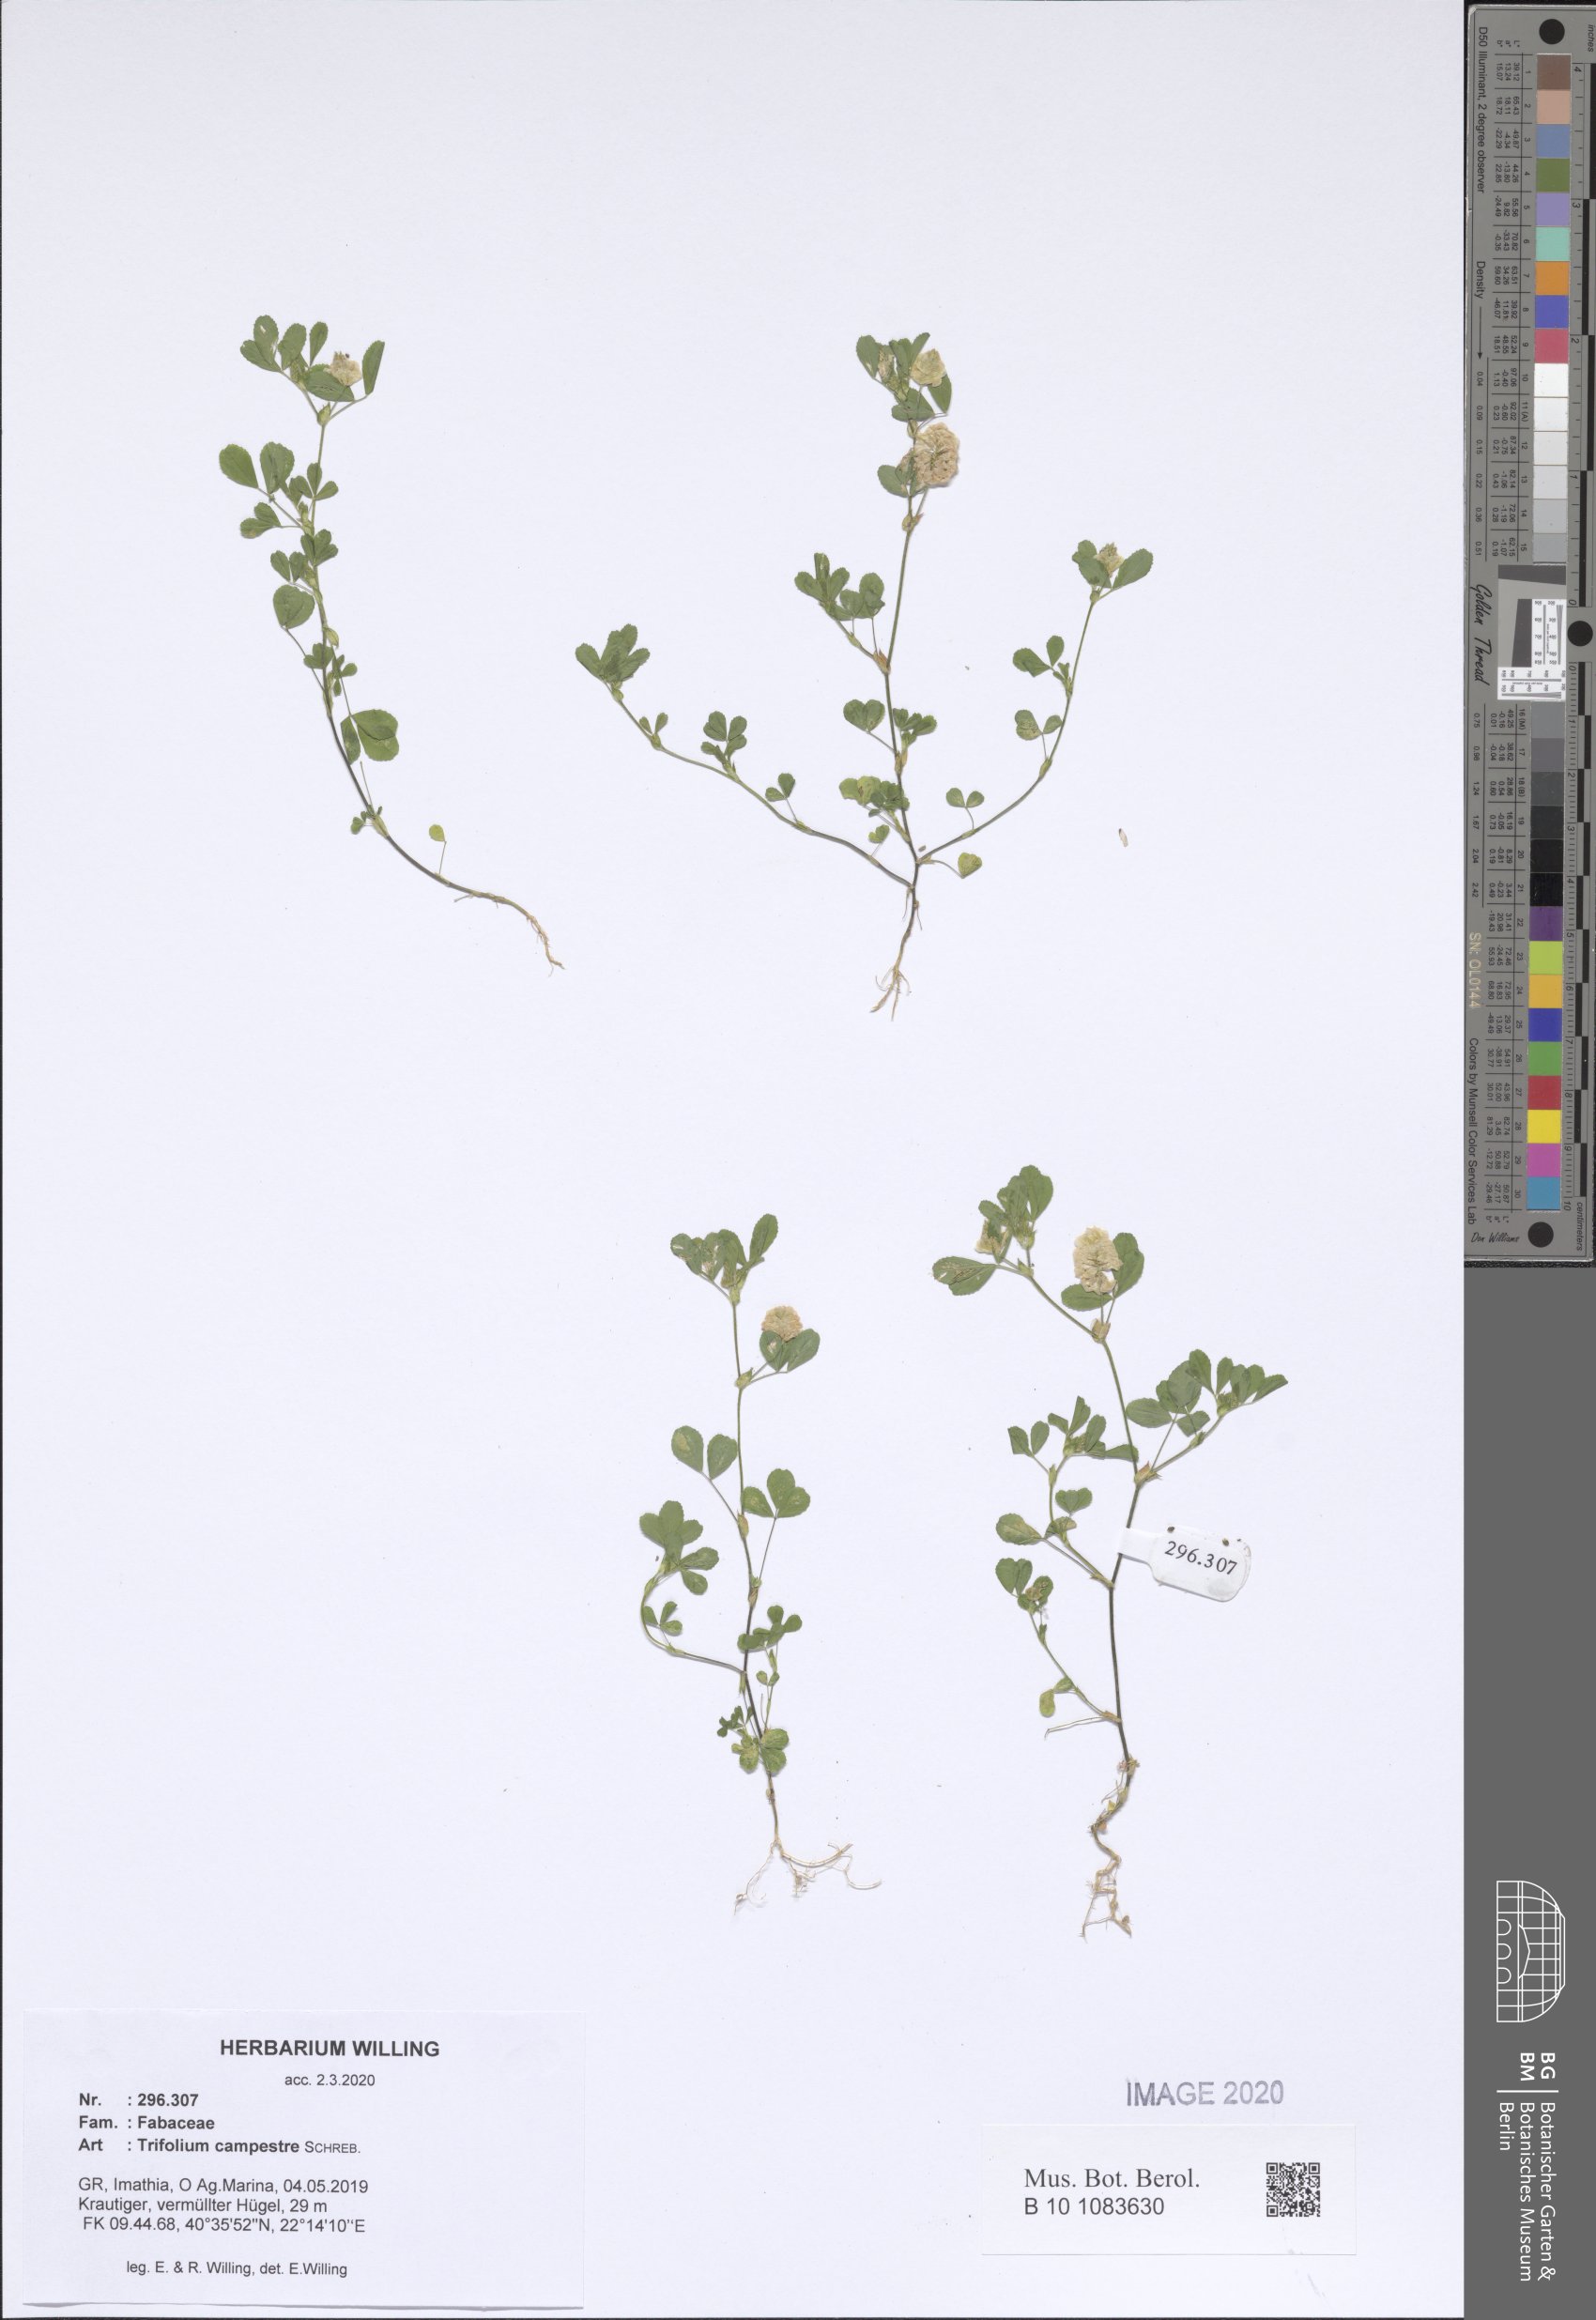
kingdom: Plantae
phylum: Tracheophyta
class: Magnoliopsida
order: Fabales
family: Fabaceae
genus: Trifolium
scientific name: Trifolium campestre
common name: Field clover
